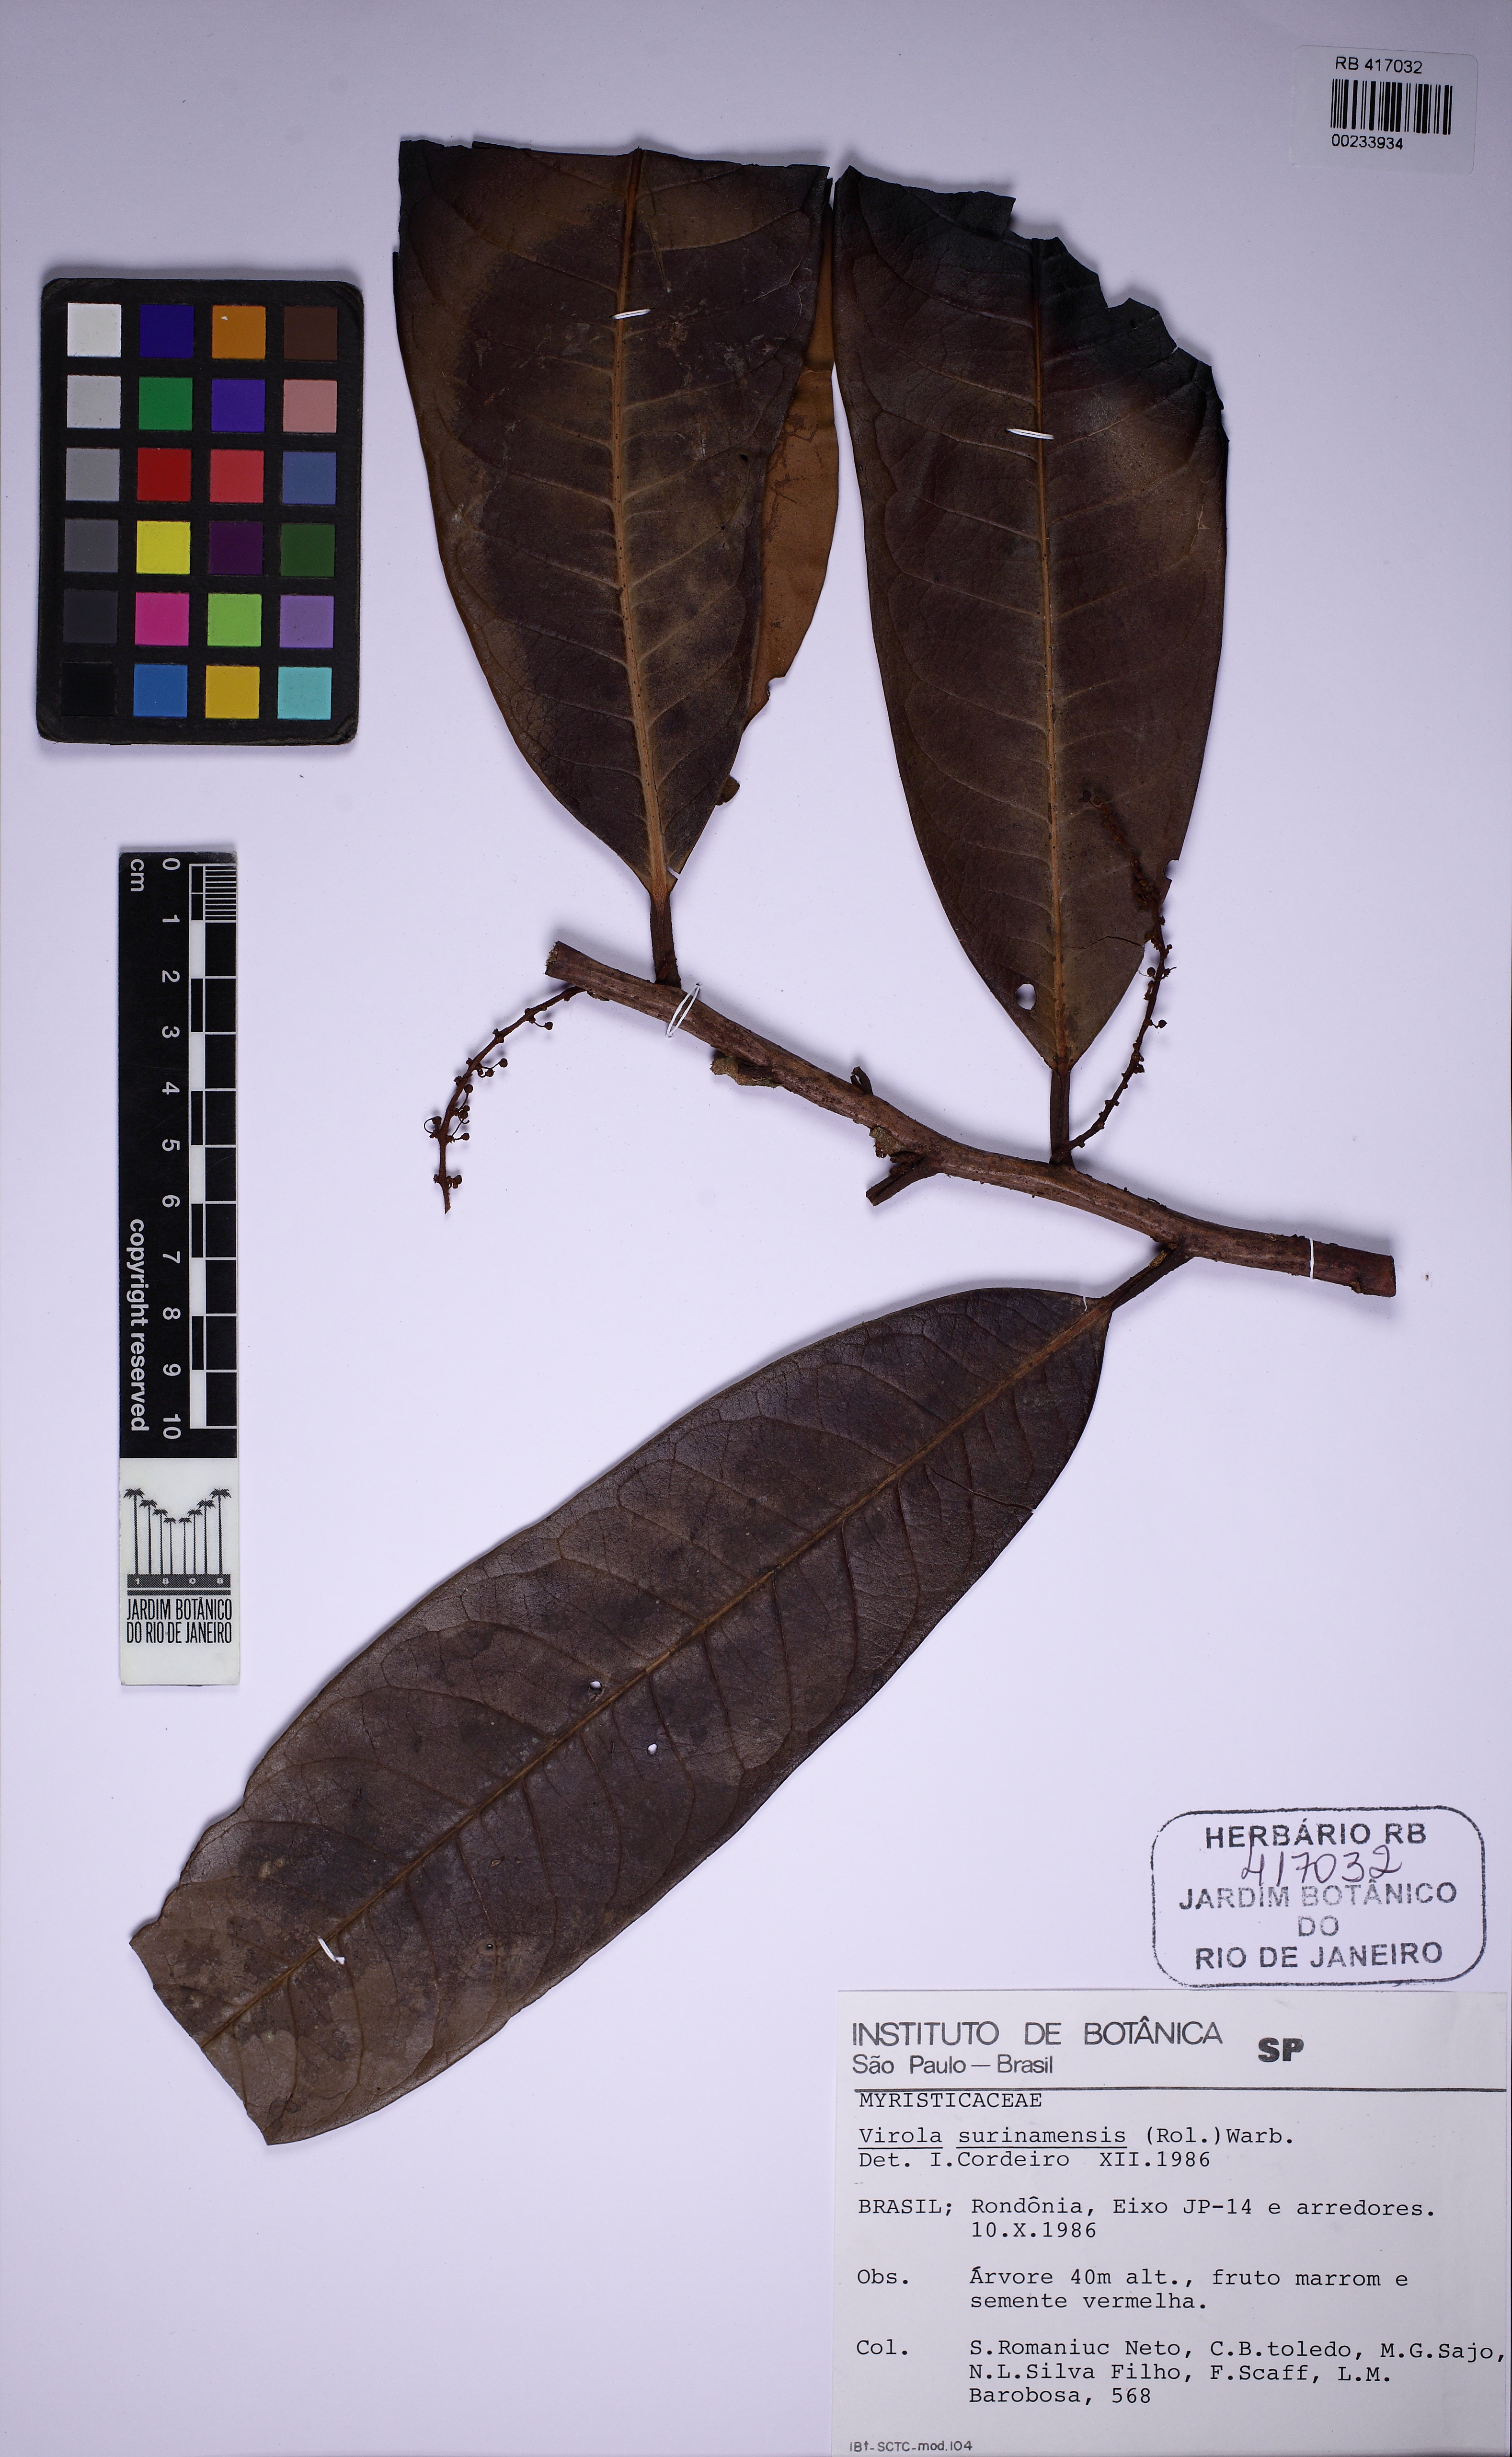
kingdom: Plantae
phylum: Tracheophyta
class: Magnoliopsida
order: Magnoliales
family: Myristicaceae
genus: Virola
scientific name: Virola surinamensis
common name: Baboonwood
